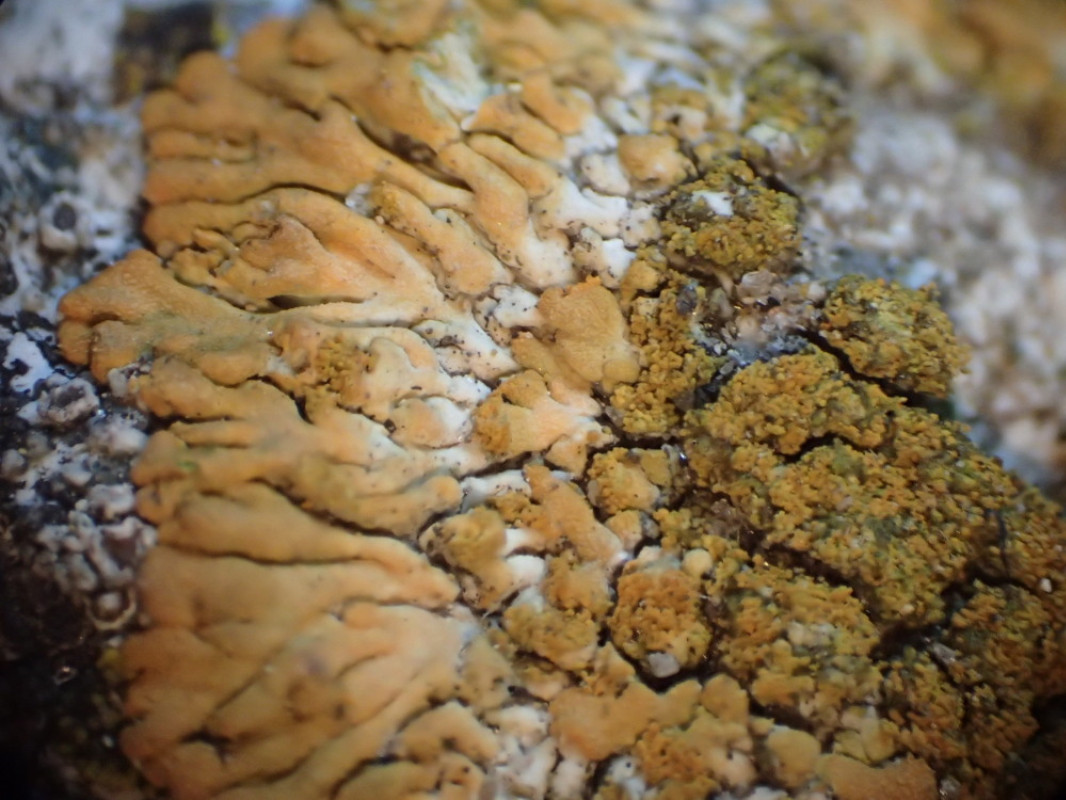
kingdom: Fungi
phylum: Ascomycota
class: Lecanoromycetes
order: Teloschistales
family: Teloschistaceae
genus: Calogaya
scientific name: Calogaya decipiens
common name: knudret orangelav
